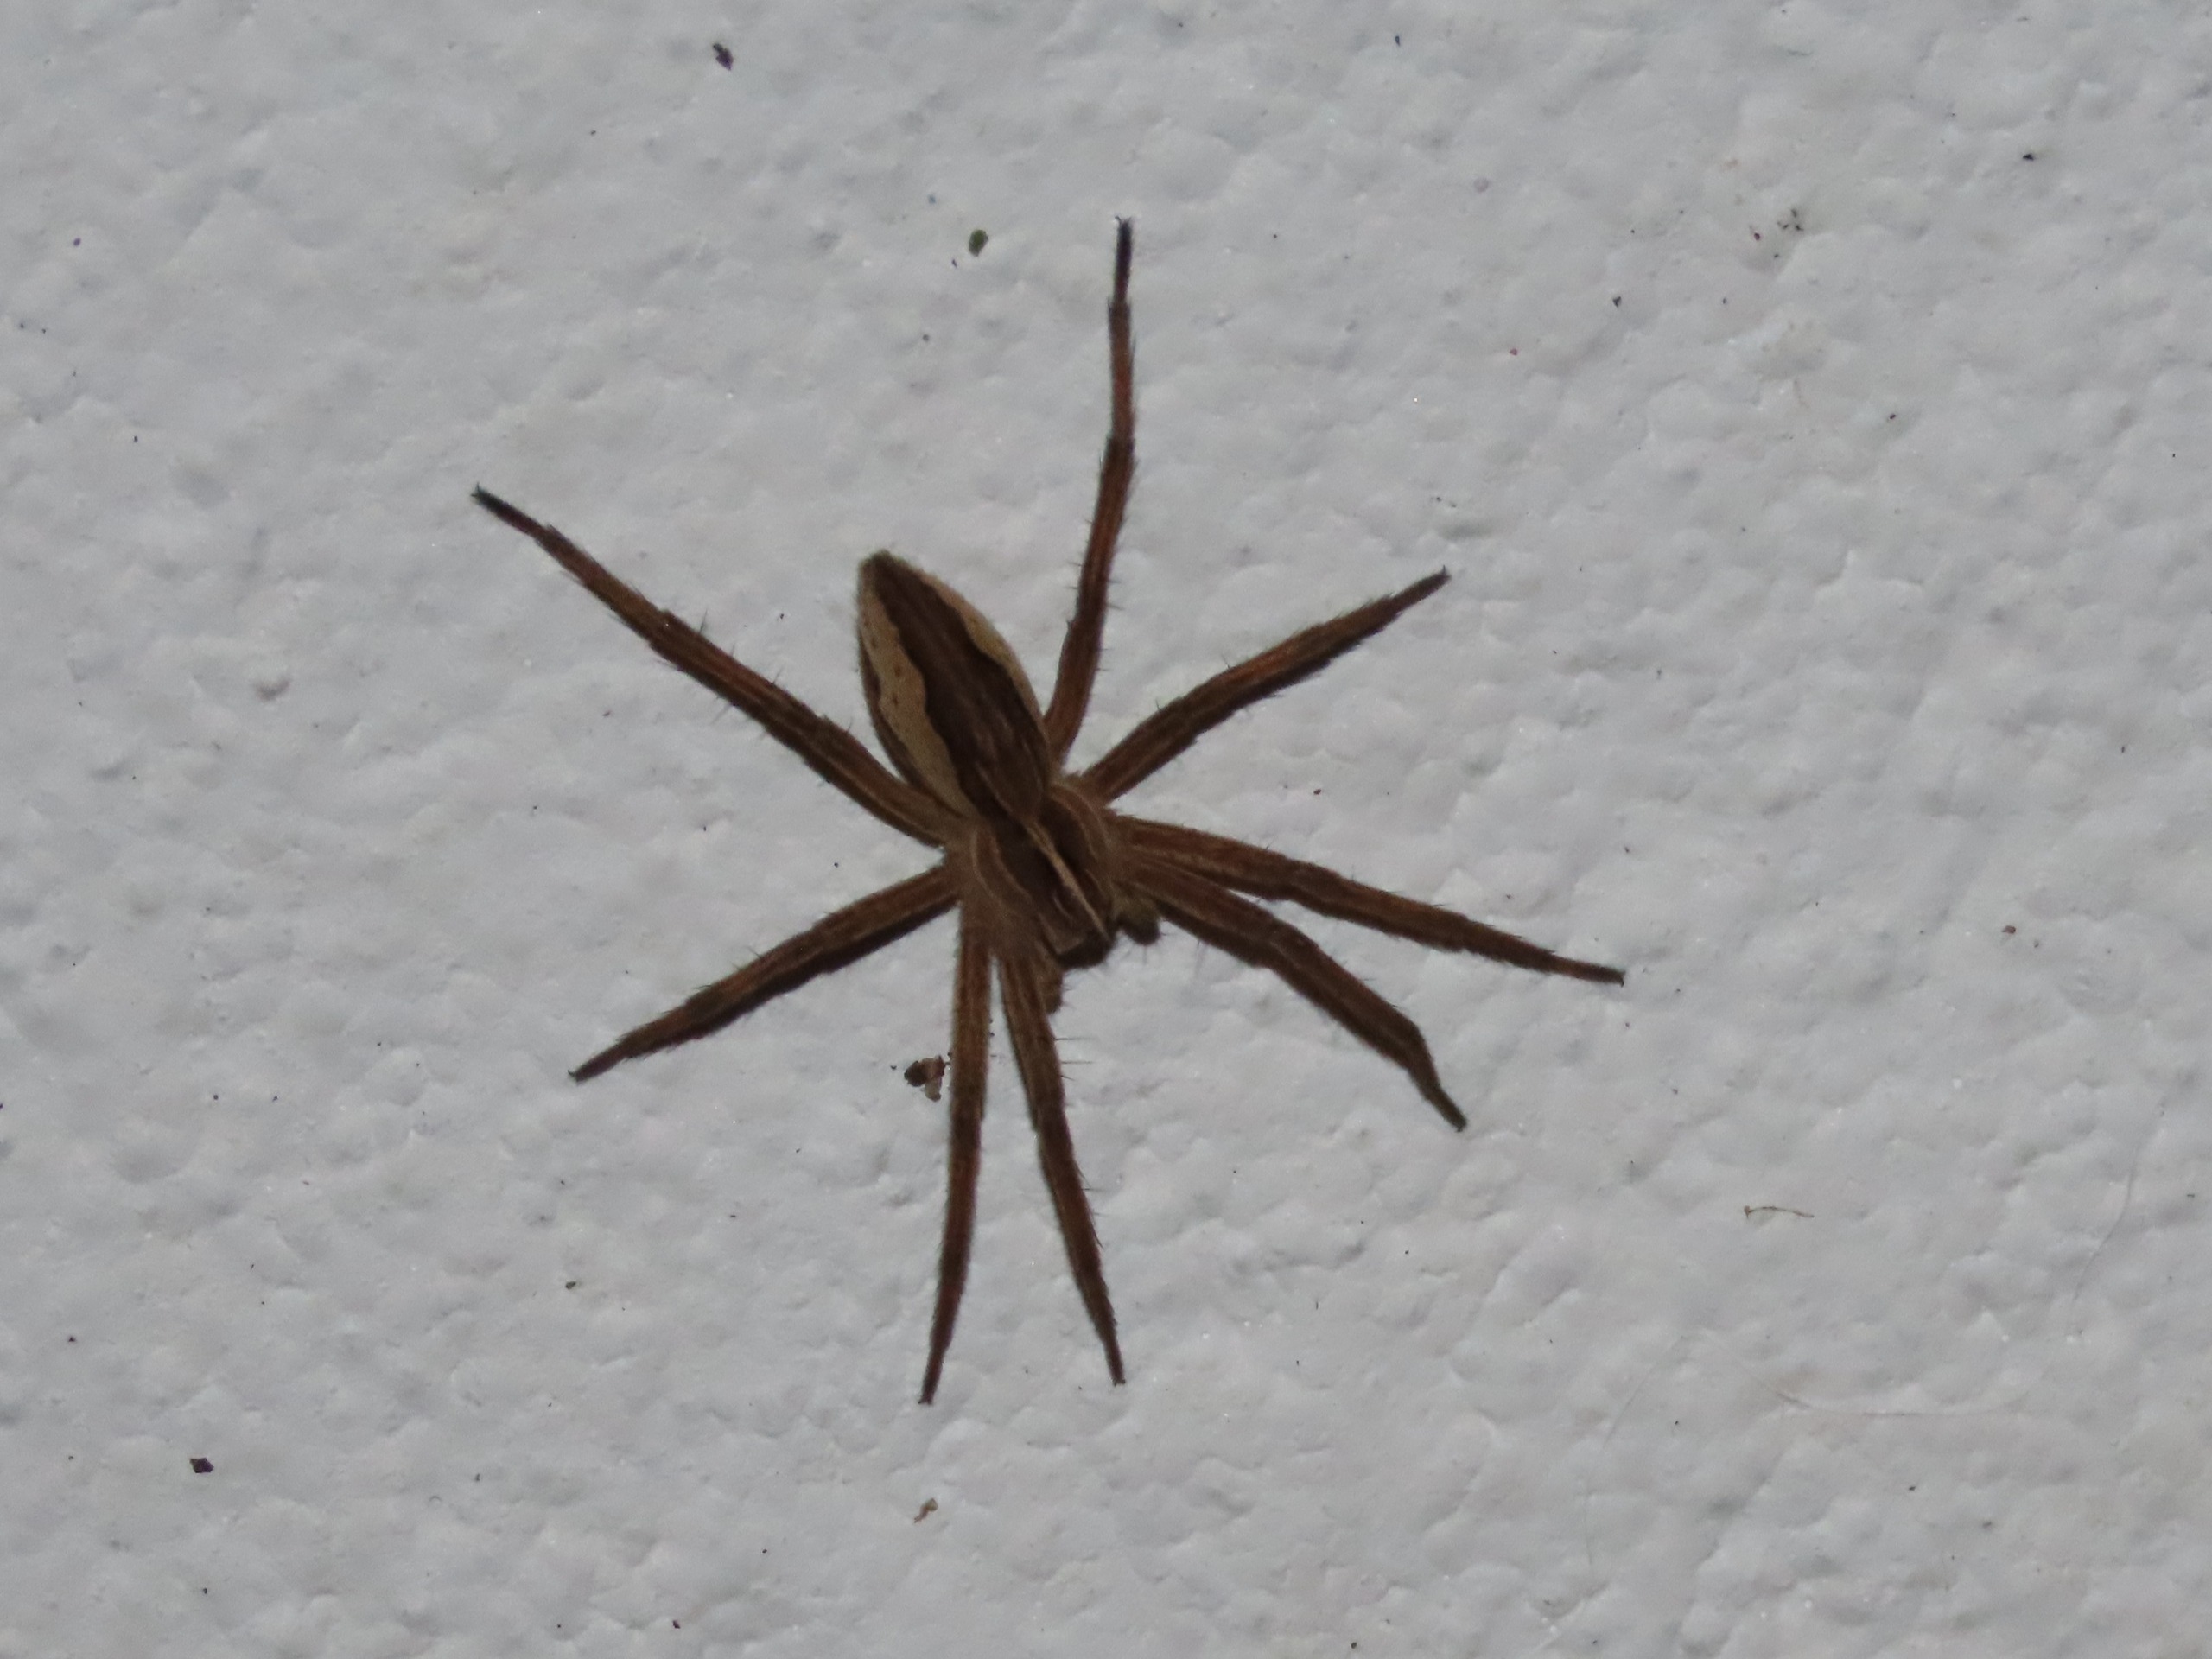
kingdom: Animalia
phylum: Arthropoda
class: Arachnida
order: Araneae
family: Pisauridae
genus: Pisaura
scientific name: Pisaura mirabilis
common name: Almindelig rovedderkop
